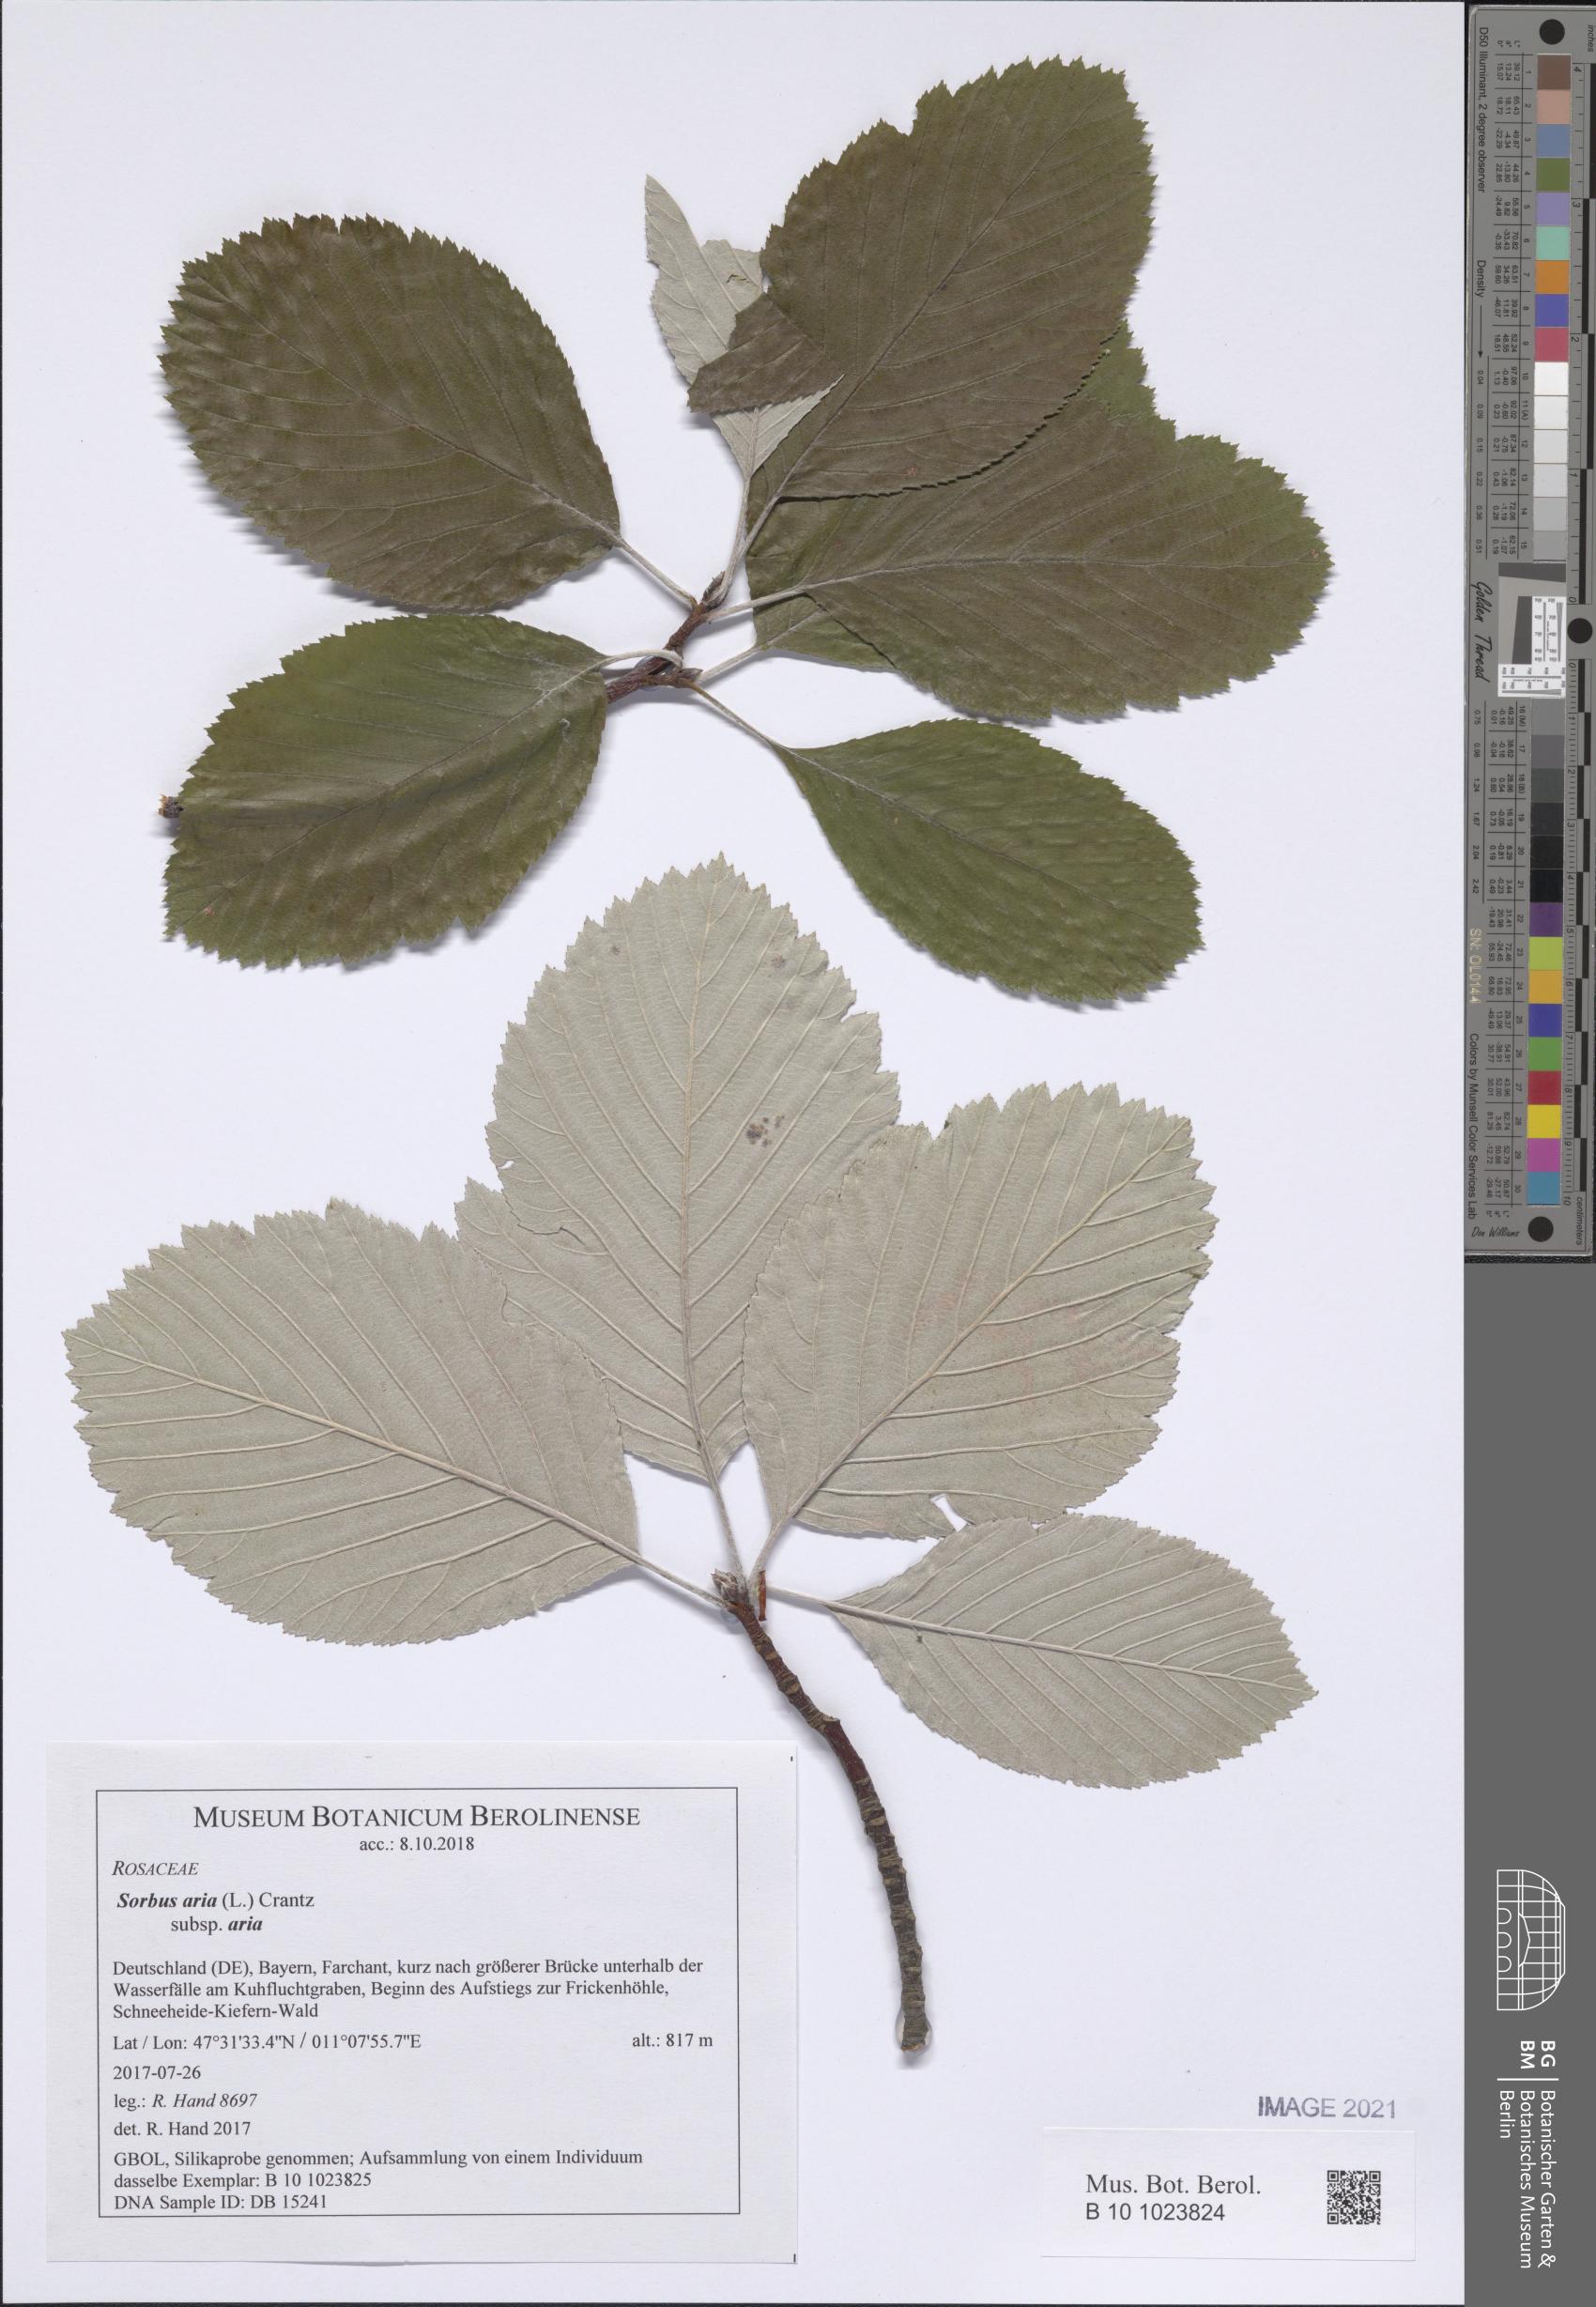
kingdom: Plantae
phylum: Tracheophyta
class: Magnoliopsida
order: Rosales
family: Rosaceae
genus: Aria
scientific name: Aria edulis
